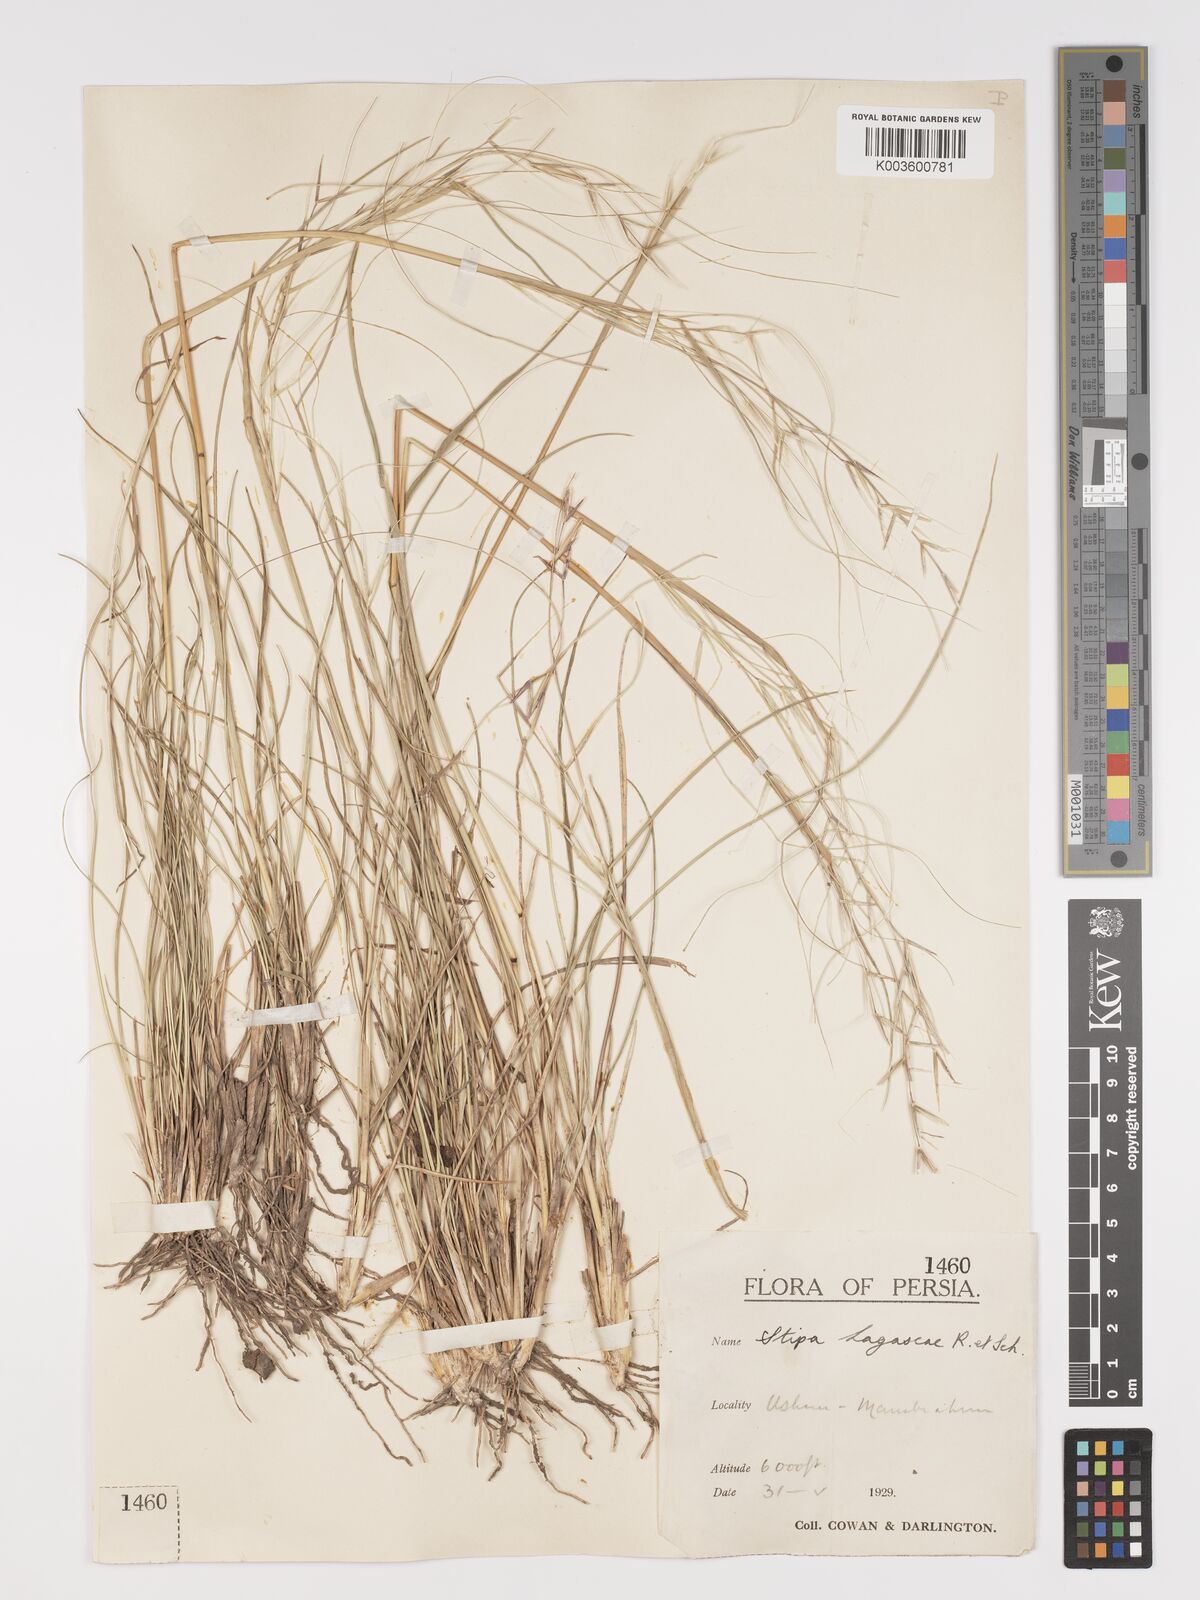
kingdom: Plantae
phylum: Tracheophyta
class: Liliopsida
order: Poales
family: Poaceae
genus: Stipa
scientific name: Stipa lagascae
